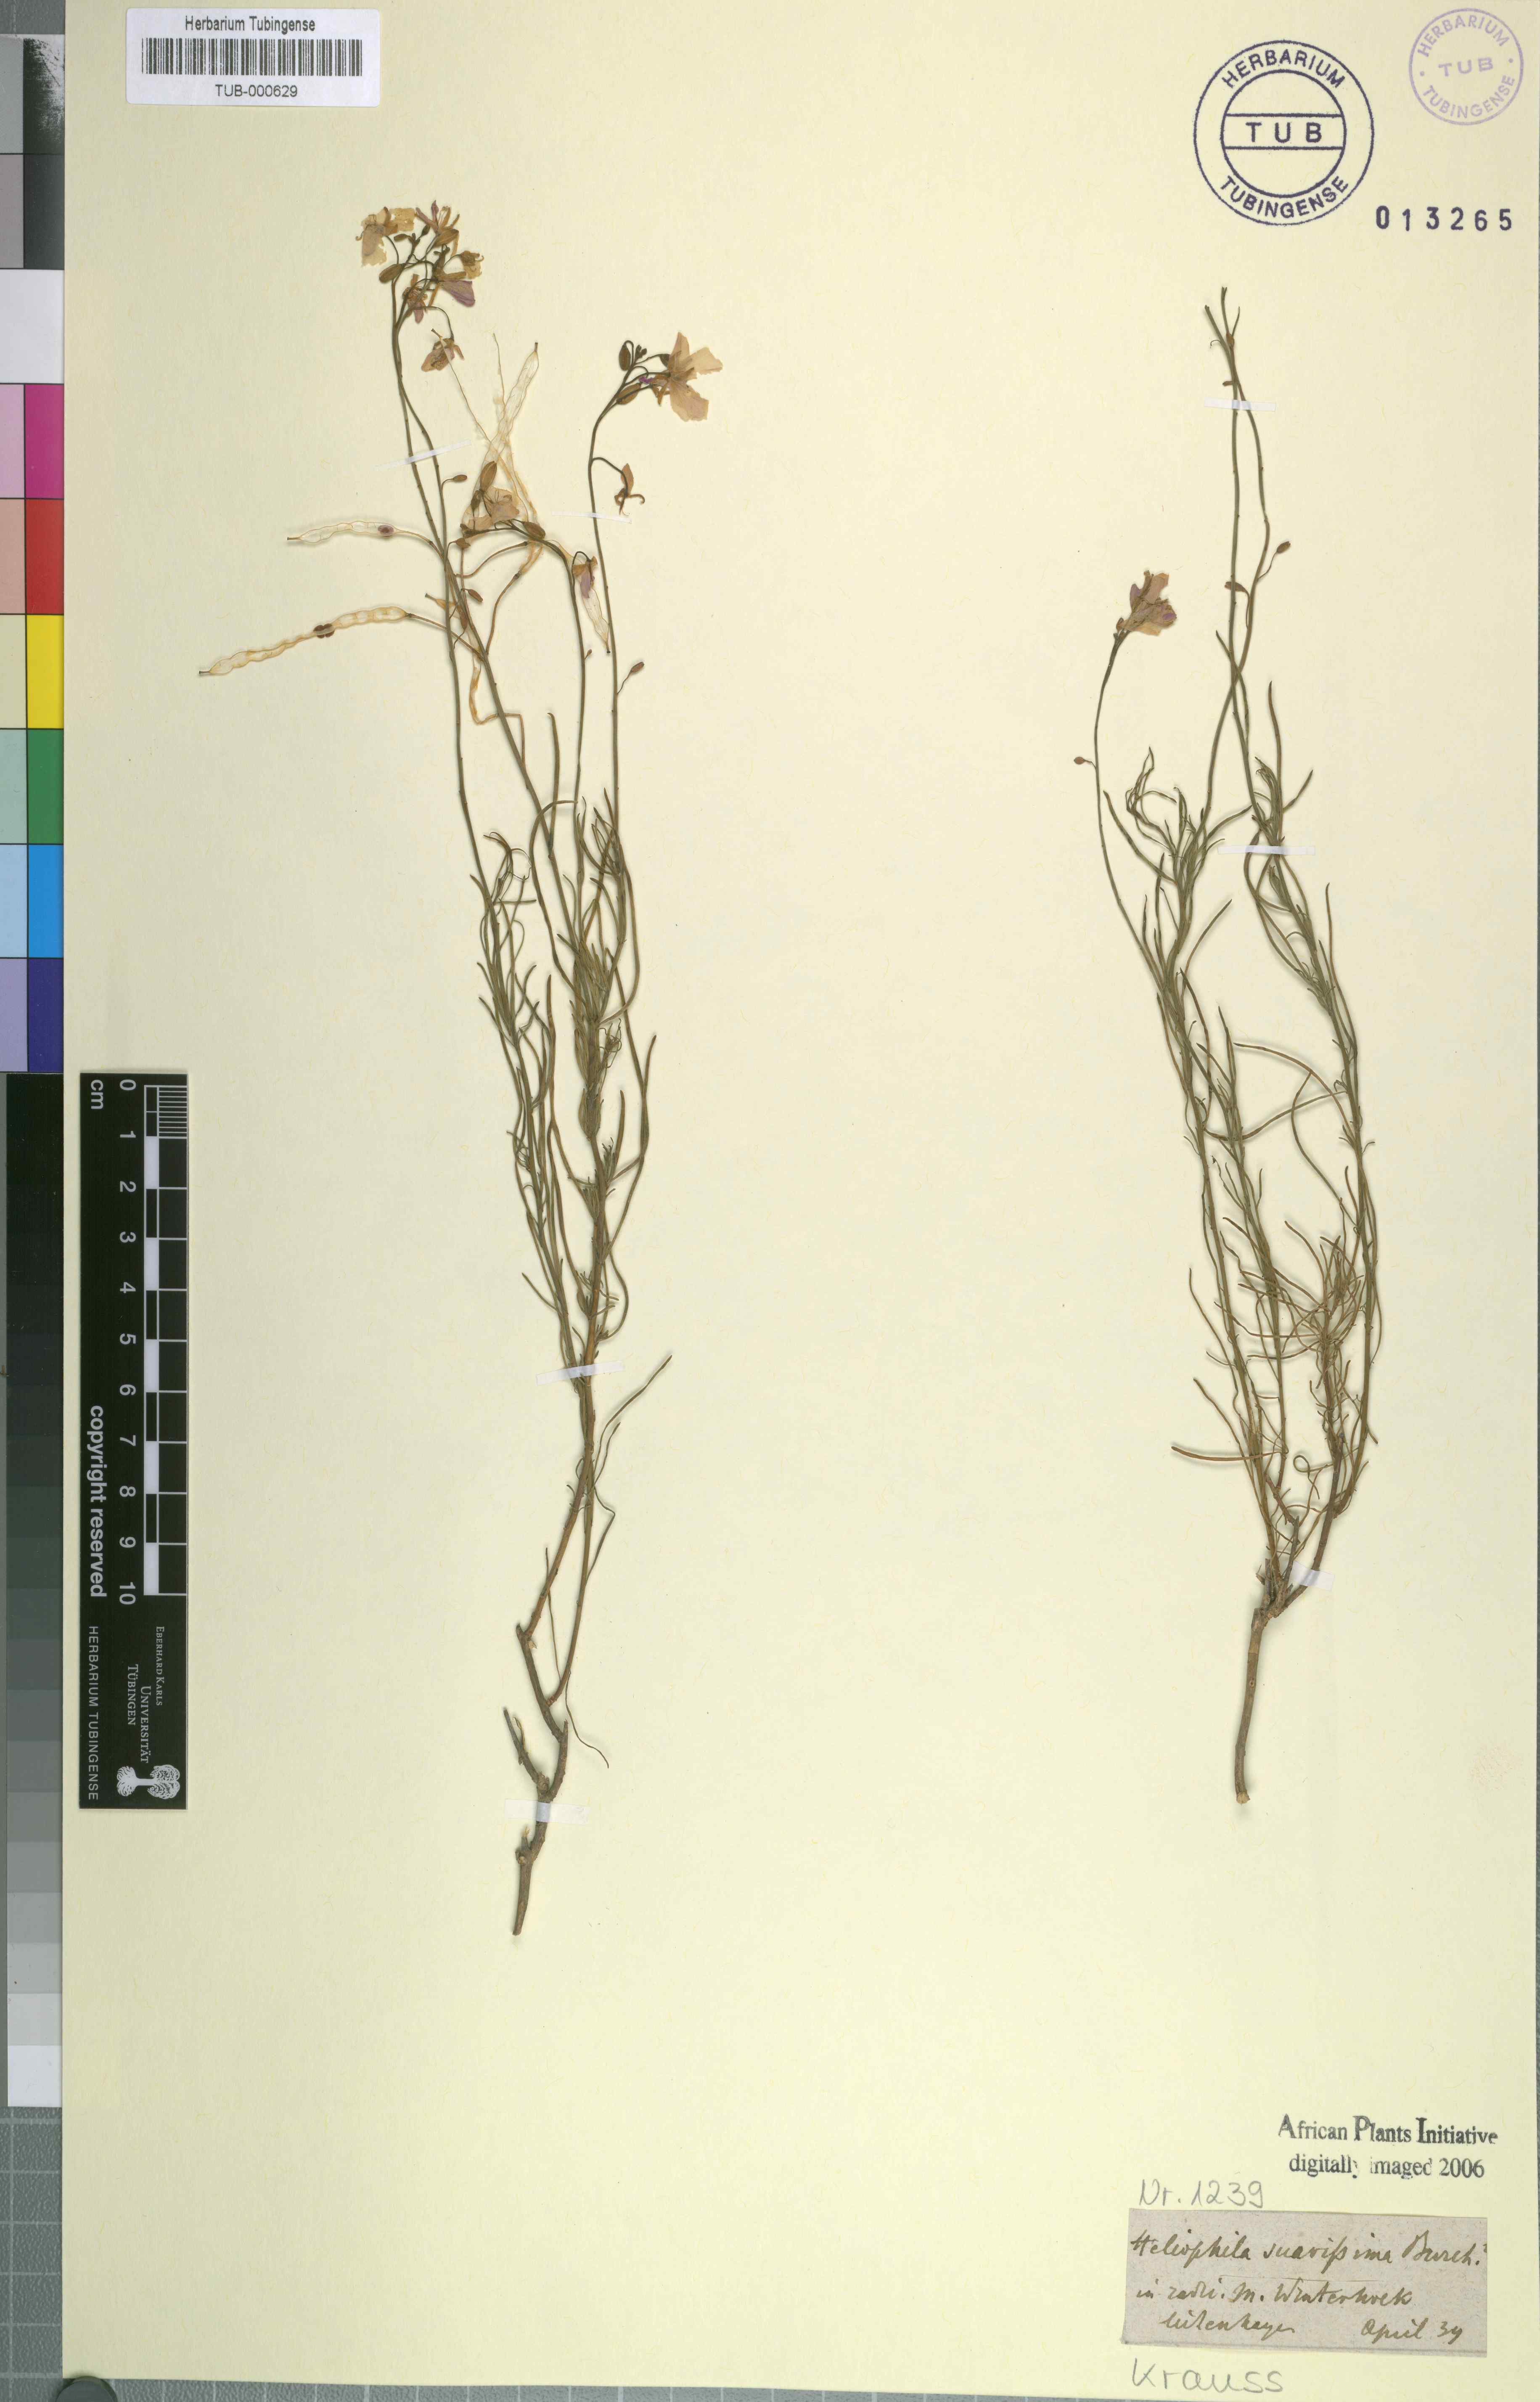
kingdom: Plantae
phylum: Tracheophyta
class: Magnoliopsida
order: Brassicales
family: Brassicaceae
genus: Heliophila
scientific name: Heliophila suavissima
